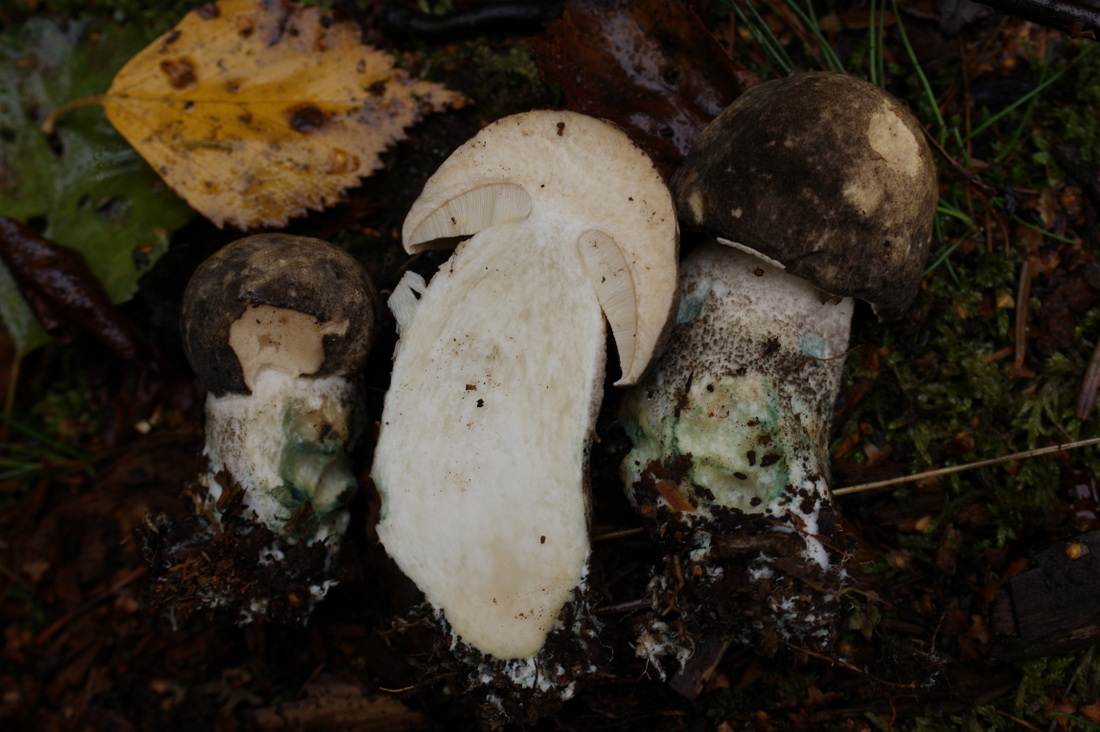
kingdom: Fungi
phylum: Basidiomycota
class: Agaricomycetes
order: Boletales
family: Boletaceae
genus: Leccinum
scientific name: Leccinum variicolor
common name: flammet skælrørhat
